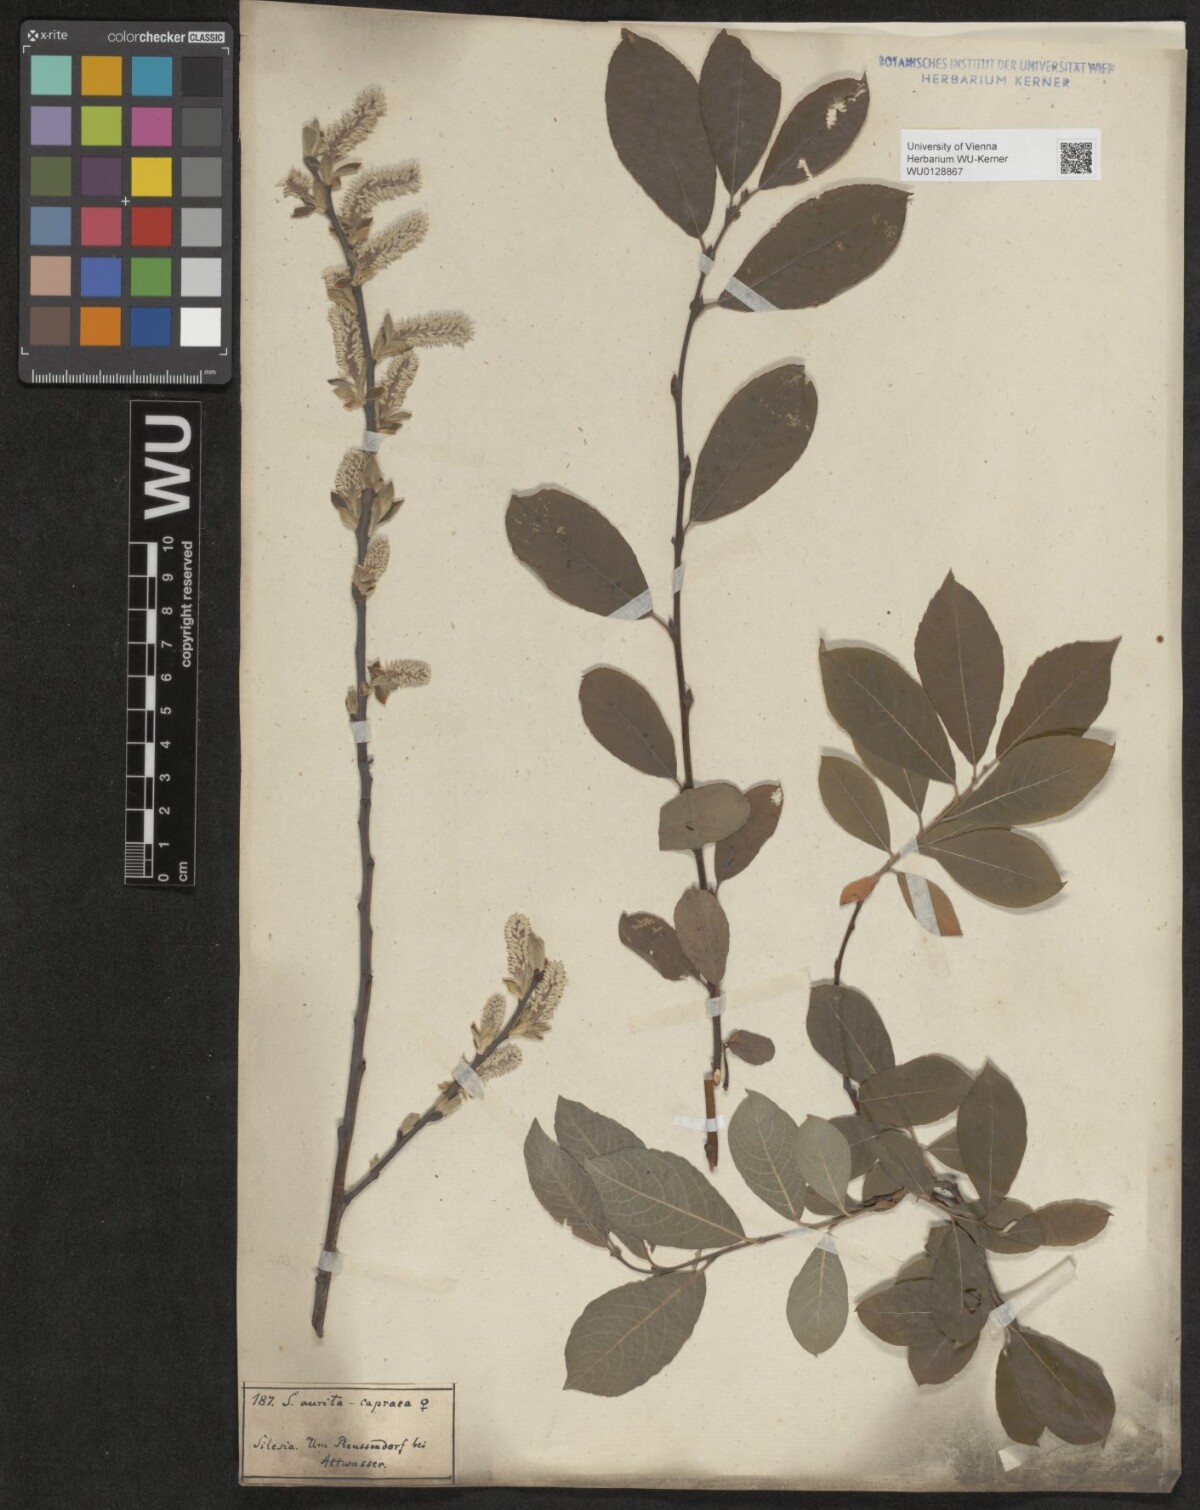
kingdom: Plantae
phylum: Tracheophyta
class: Magnoliopsida
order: Malpighiales
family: Salicaceae
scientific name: Salicaceae
